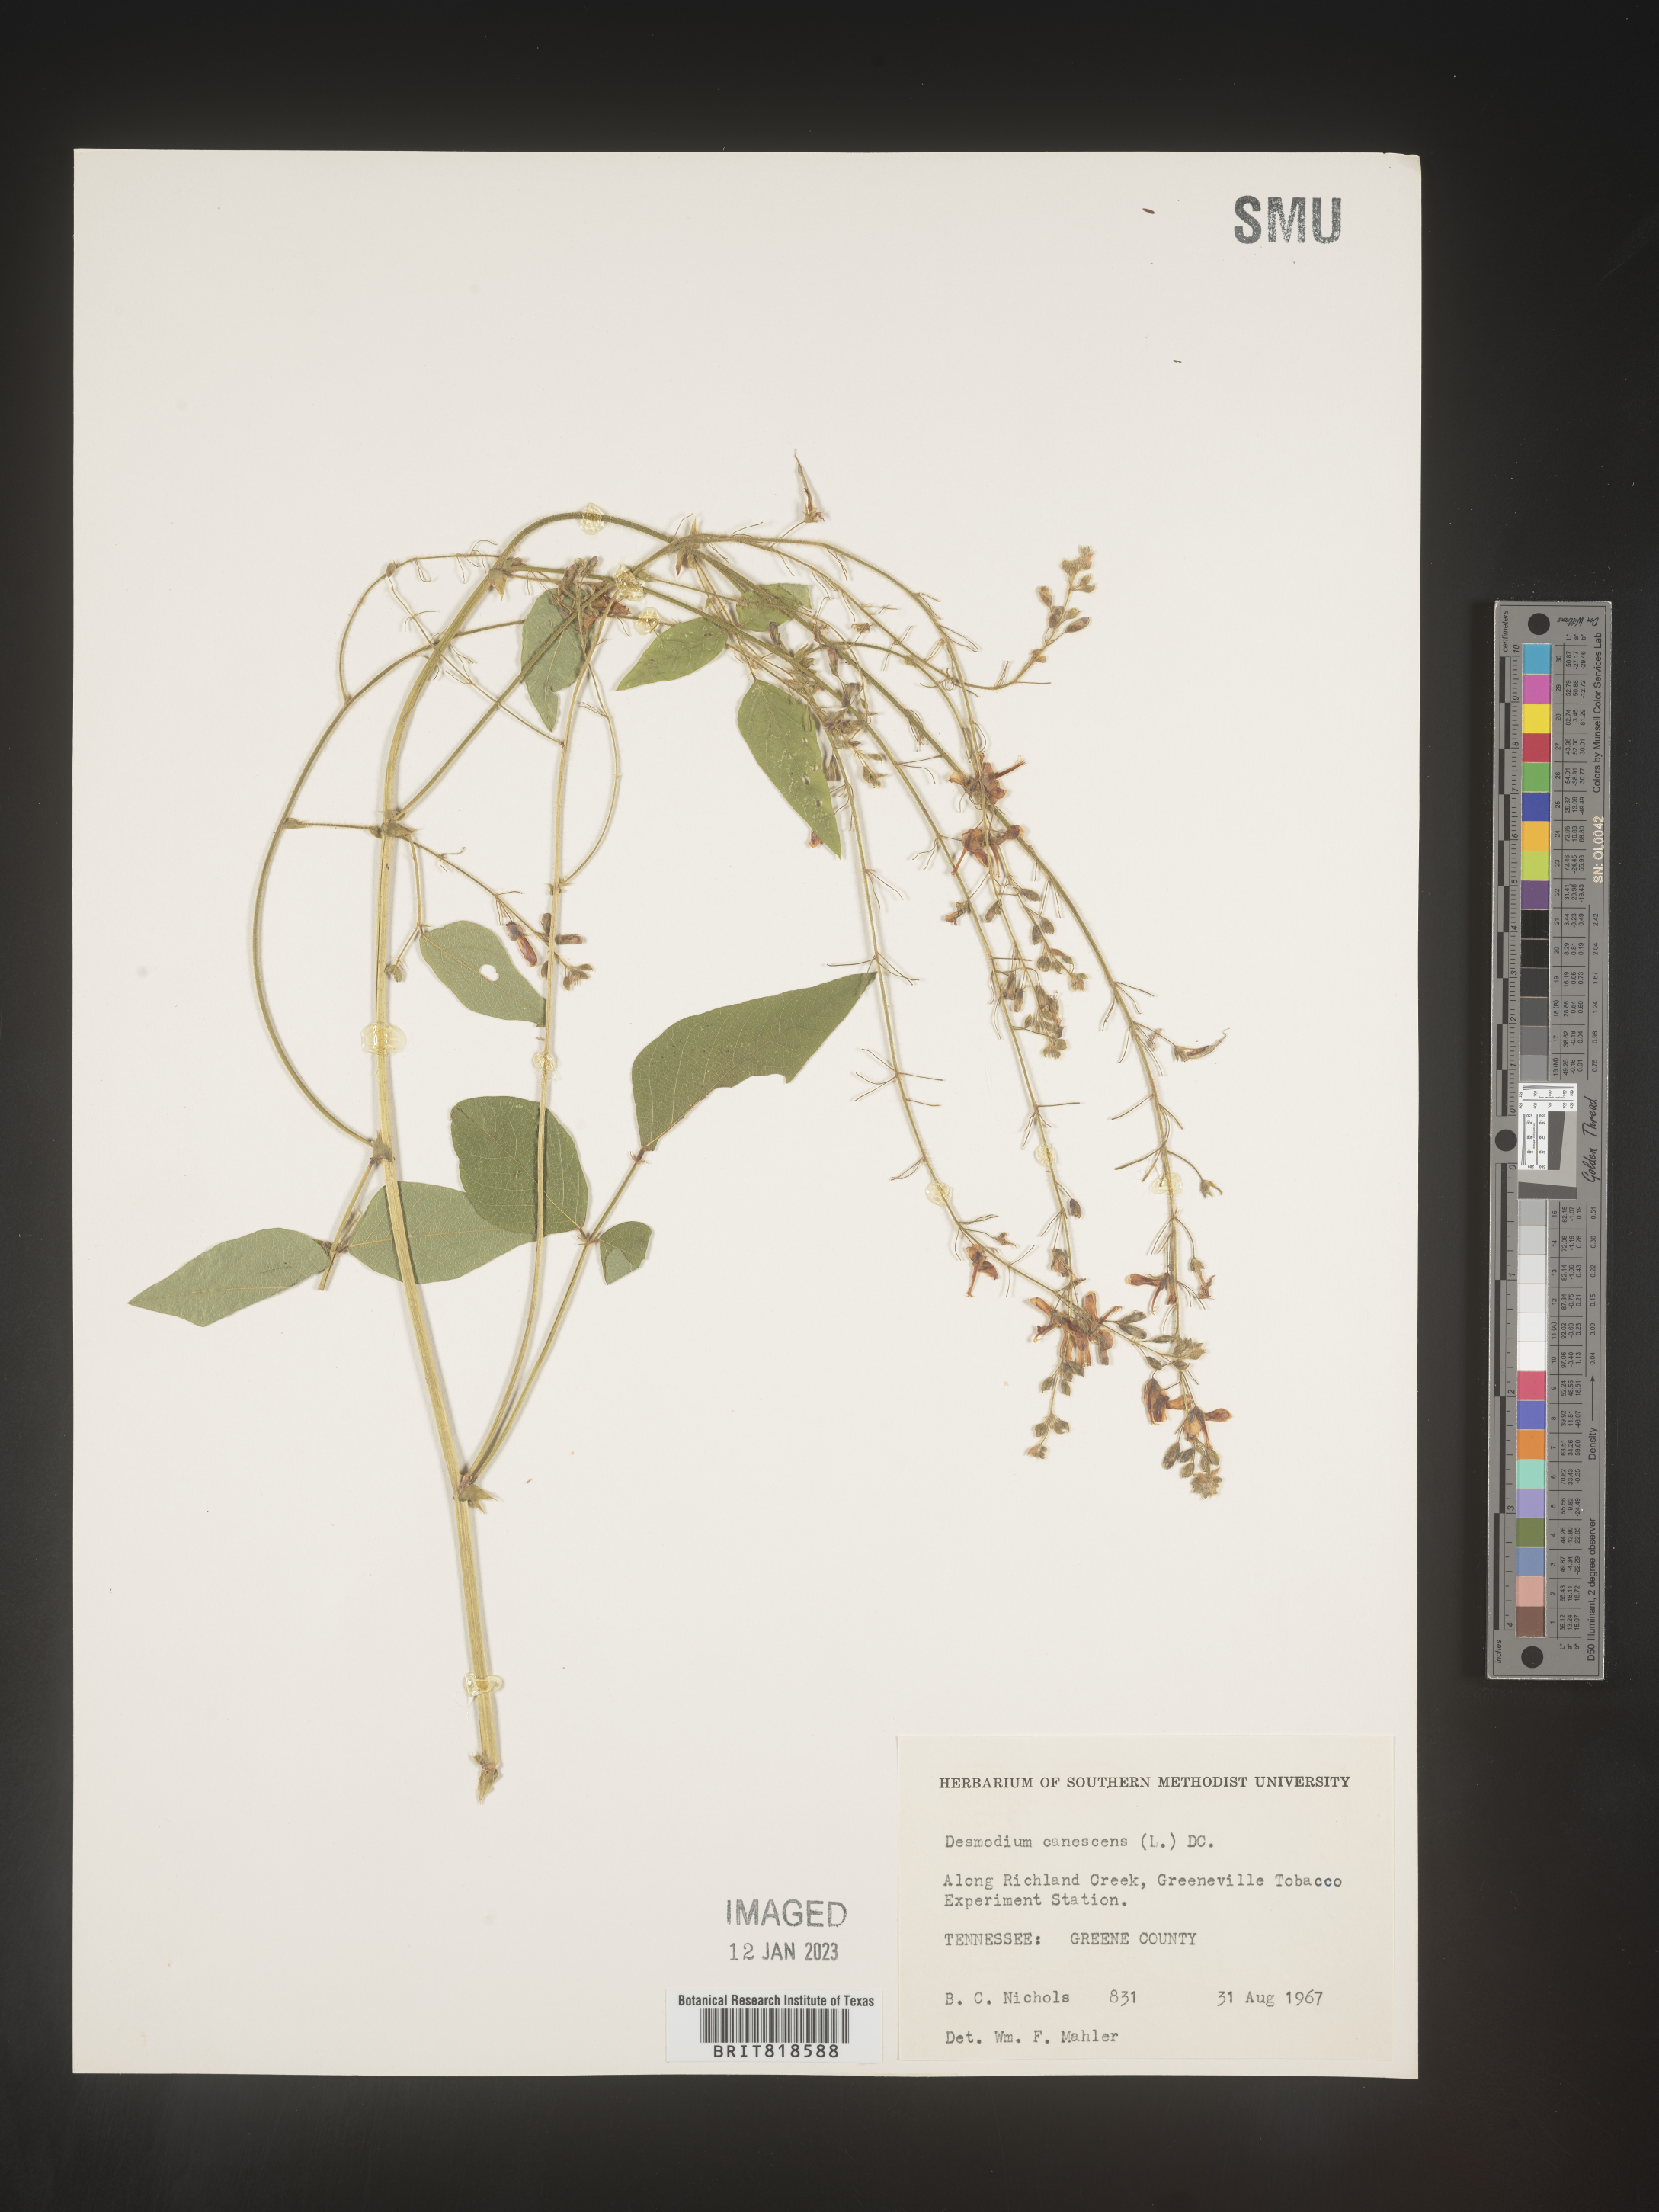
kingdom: Plantae
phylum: Tracheophyta
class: Magnoliopsida
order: Fabales
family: Fabaceae
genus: Desmodium
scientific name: Desmodium canescens
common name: Hoary tick-clover
